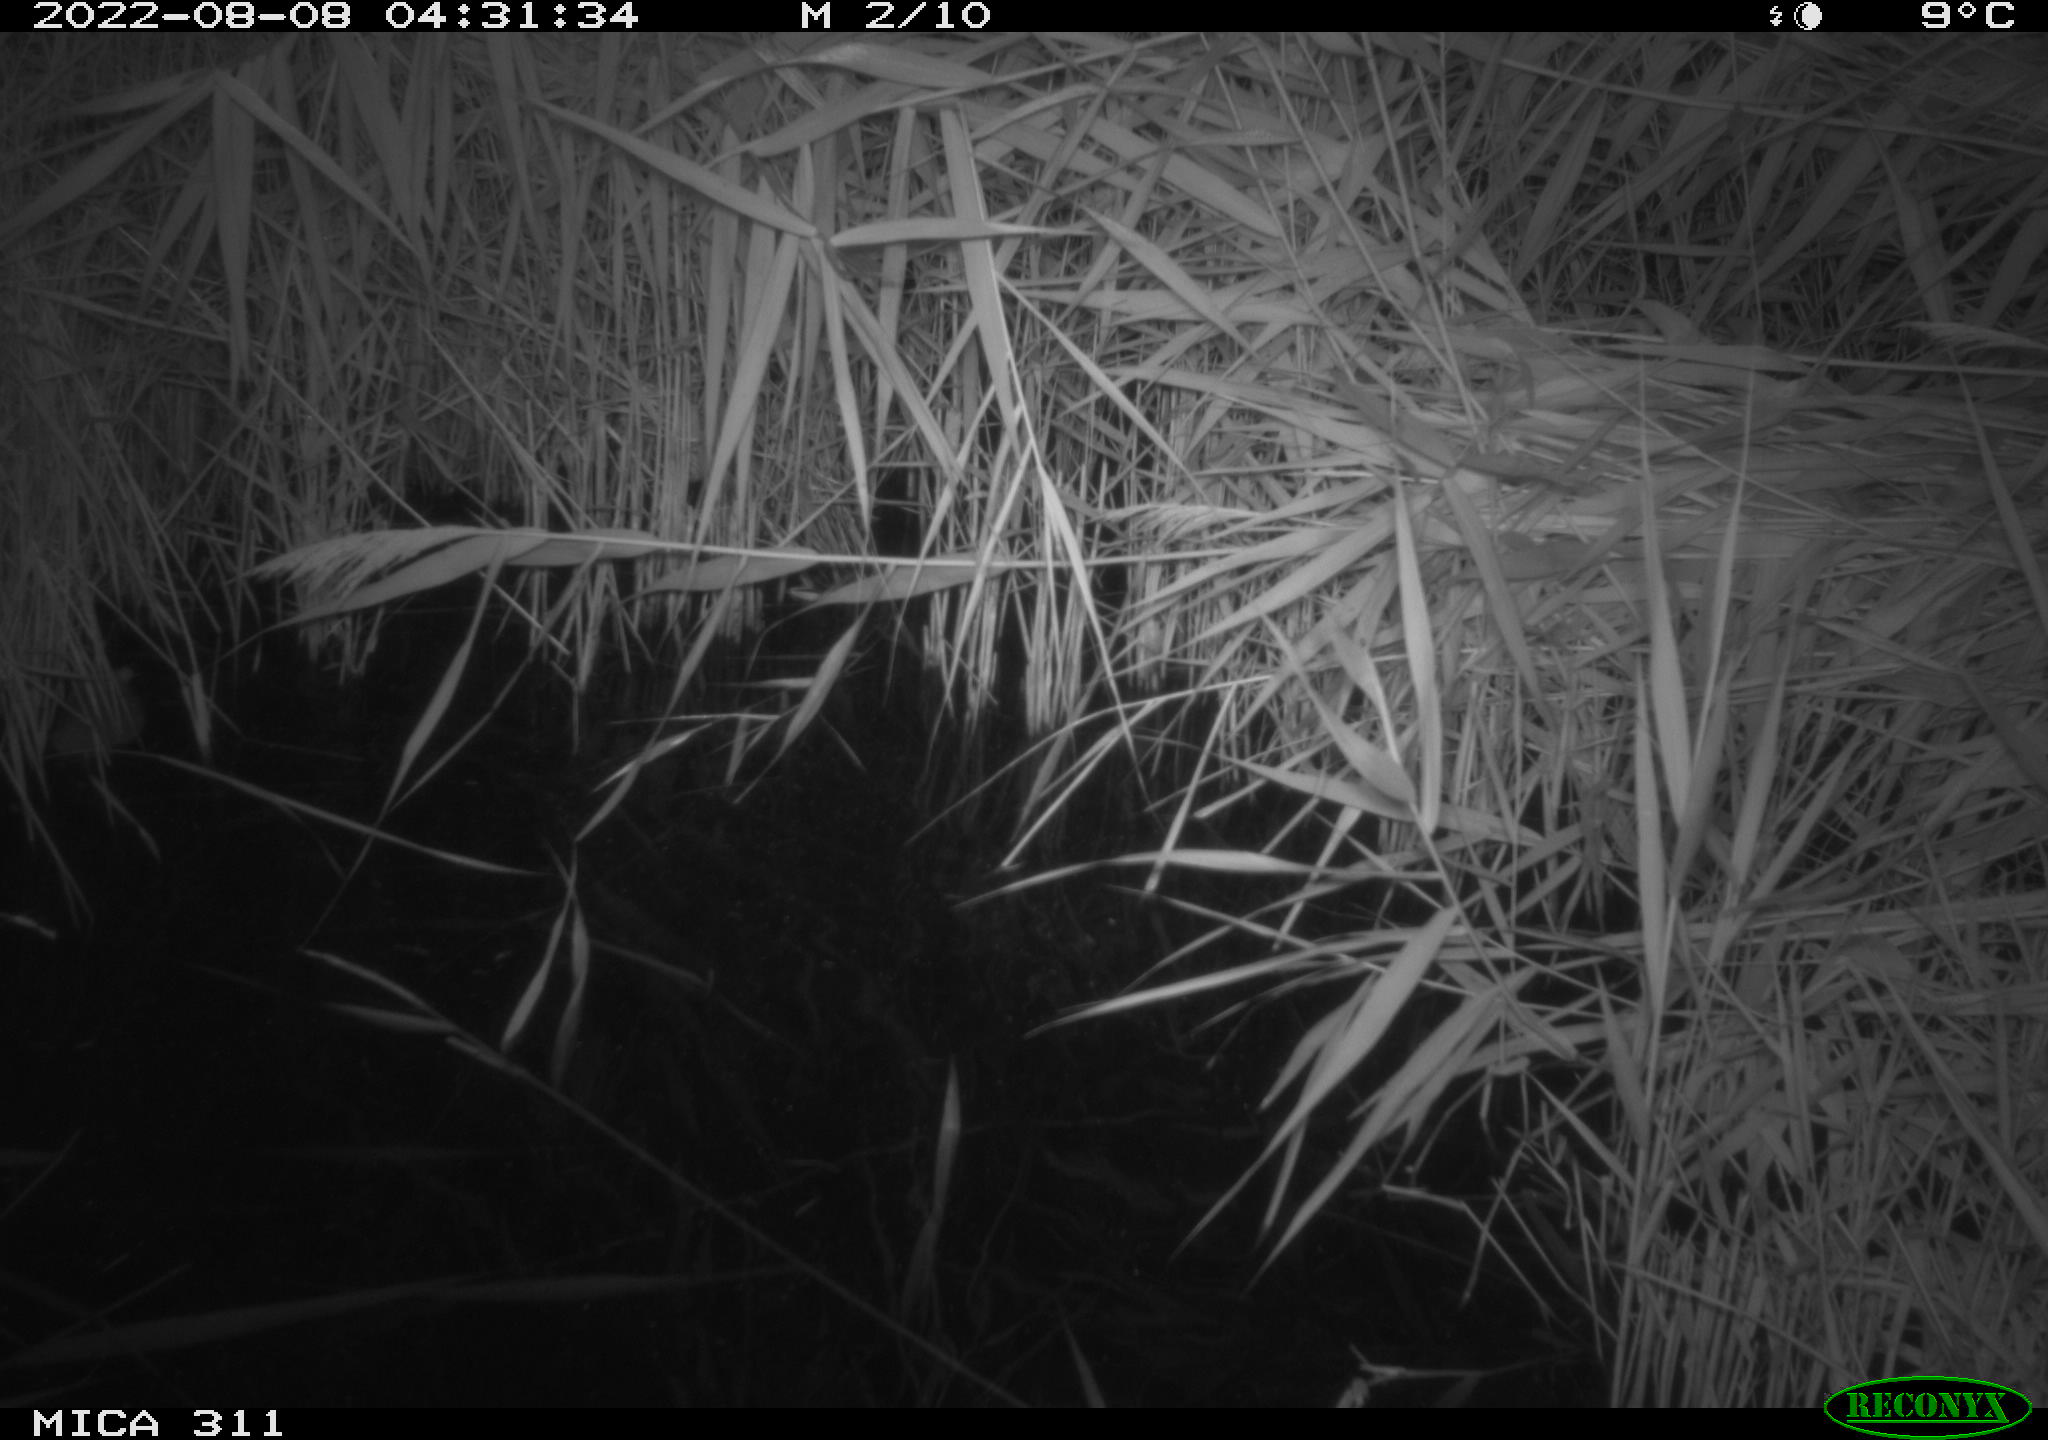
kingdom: Animalia
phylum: Chordata
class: Mammalia
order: Rodentia
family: Muridae
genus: Rattus
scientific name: Rattus norvegicus
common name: Brown rat
